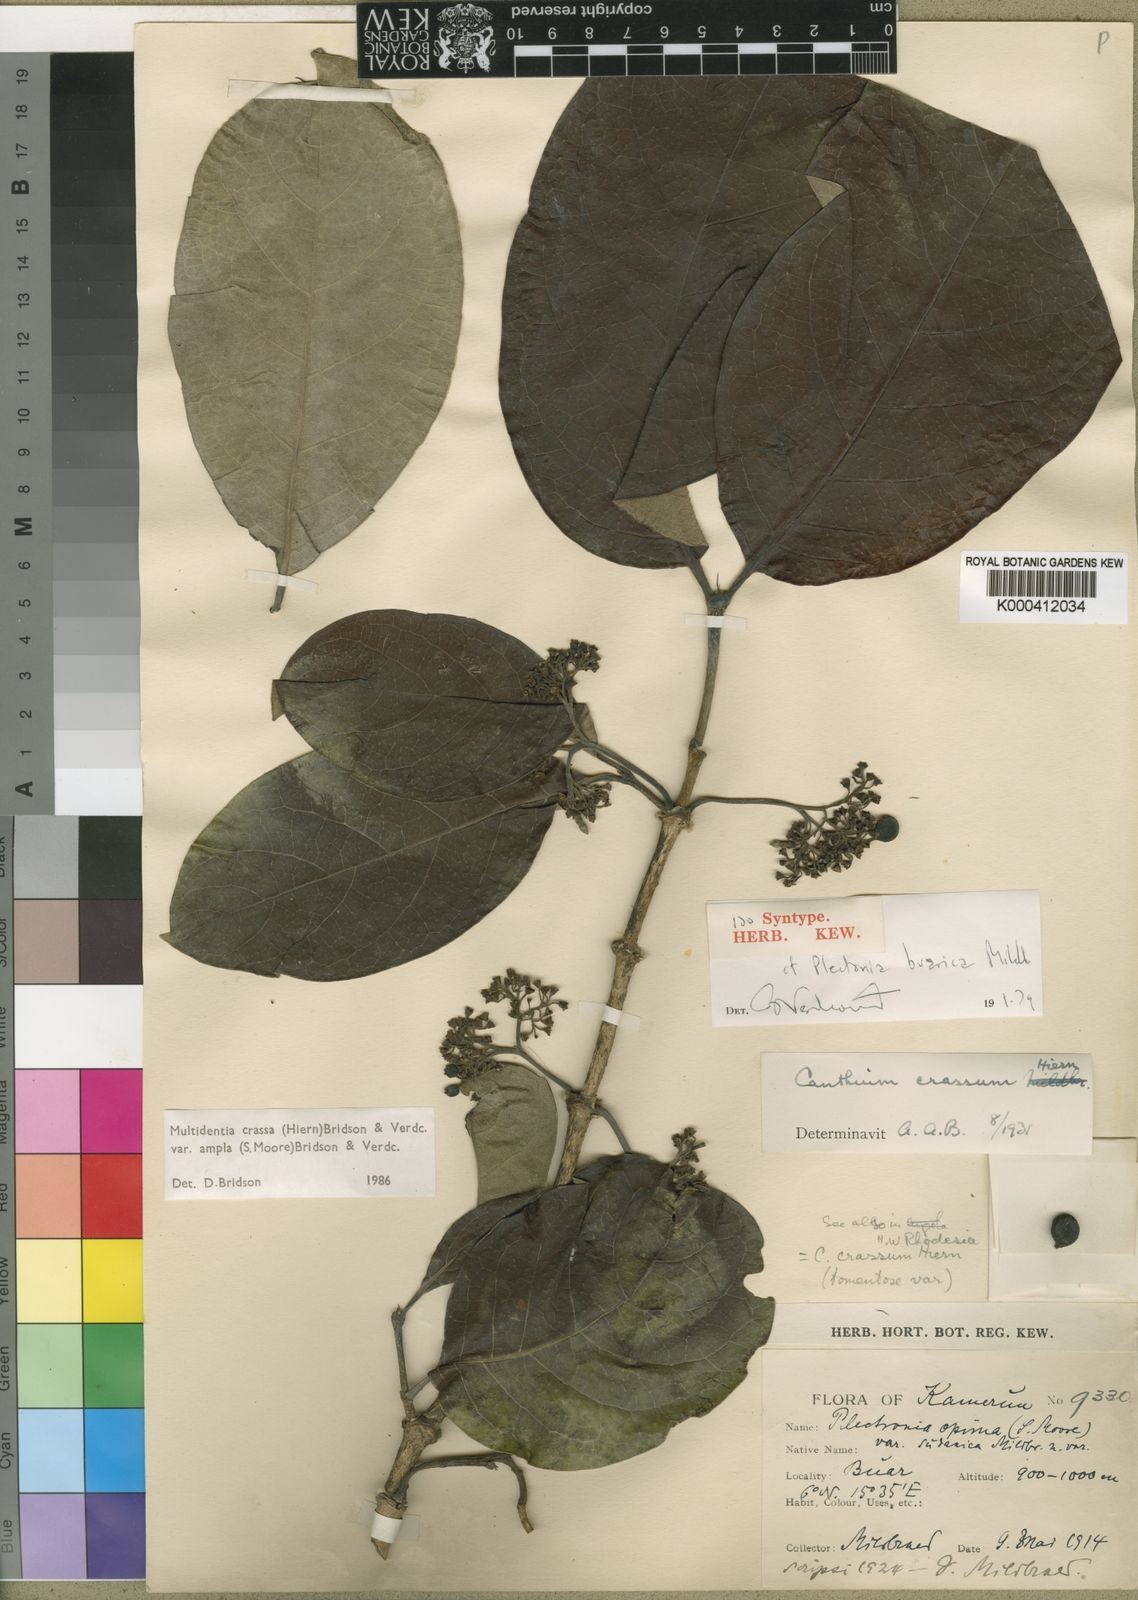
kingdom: Plantae
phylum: Tracheophyta
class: Magnoliopsida
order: Gentianales
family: Rubiaceae
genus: Multidentia
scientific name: Multidentia crassa
